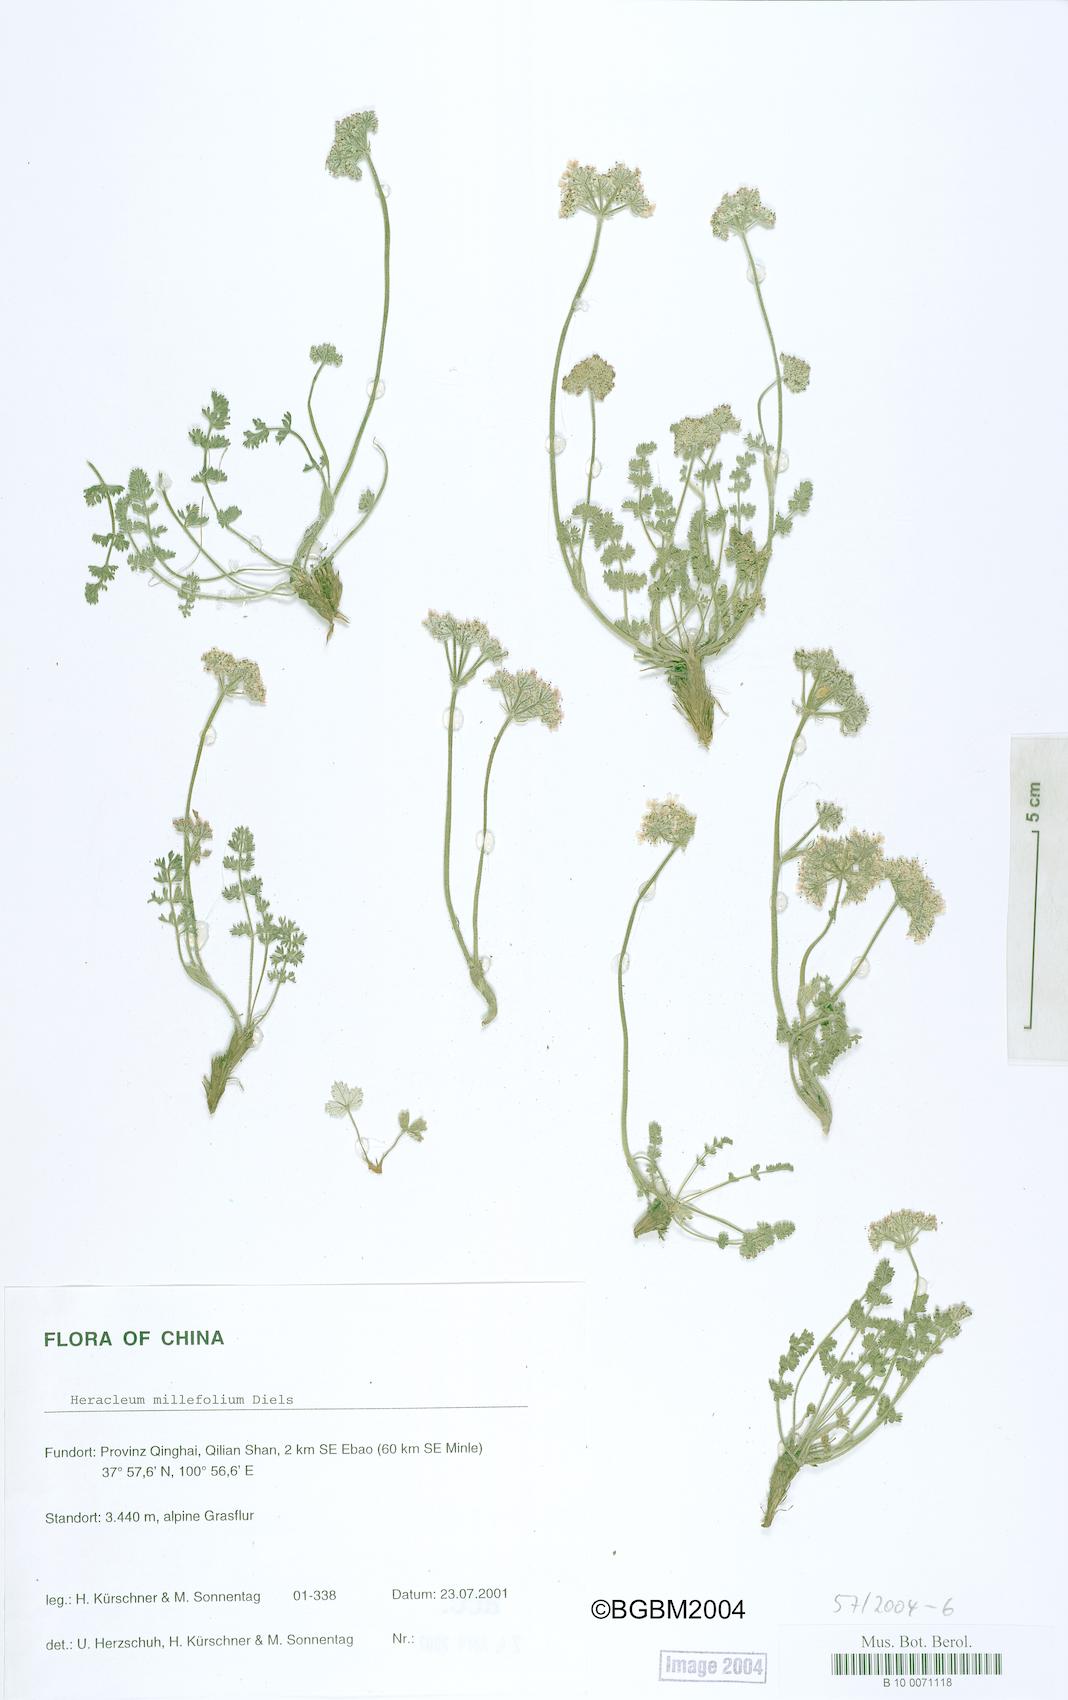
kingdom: Plantae
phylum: Tracheophyta
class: Magnoliopsida
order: Apiales
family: Apiaceae
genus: Semenovia
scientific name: Semenovia torilifolia
